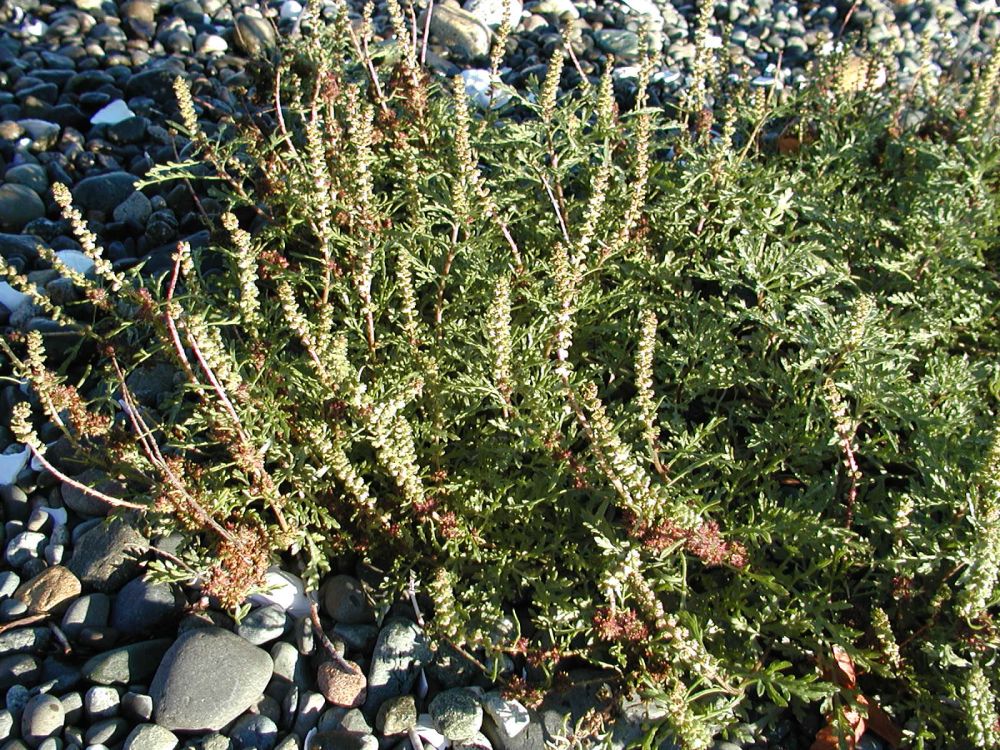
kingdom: Plantae
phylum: Tracheophyta
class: Magnoliopsida
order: Asterales
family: Asteraceae
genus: Ambrosia
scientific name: Ambrosia chamissonis
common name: Beachbur
